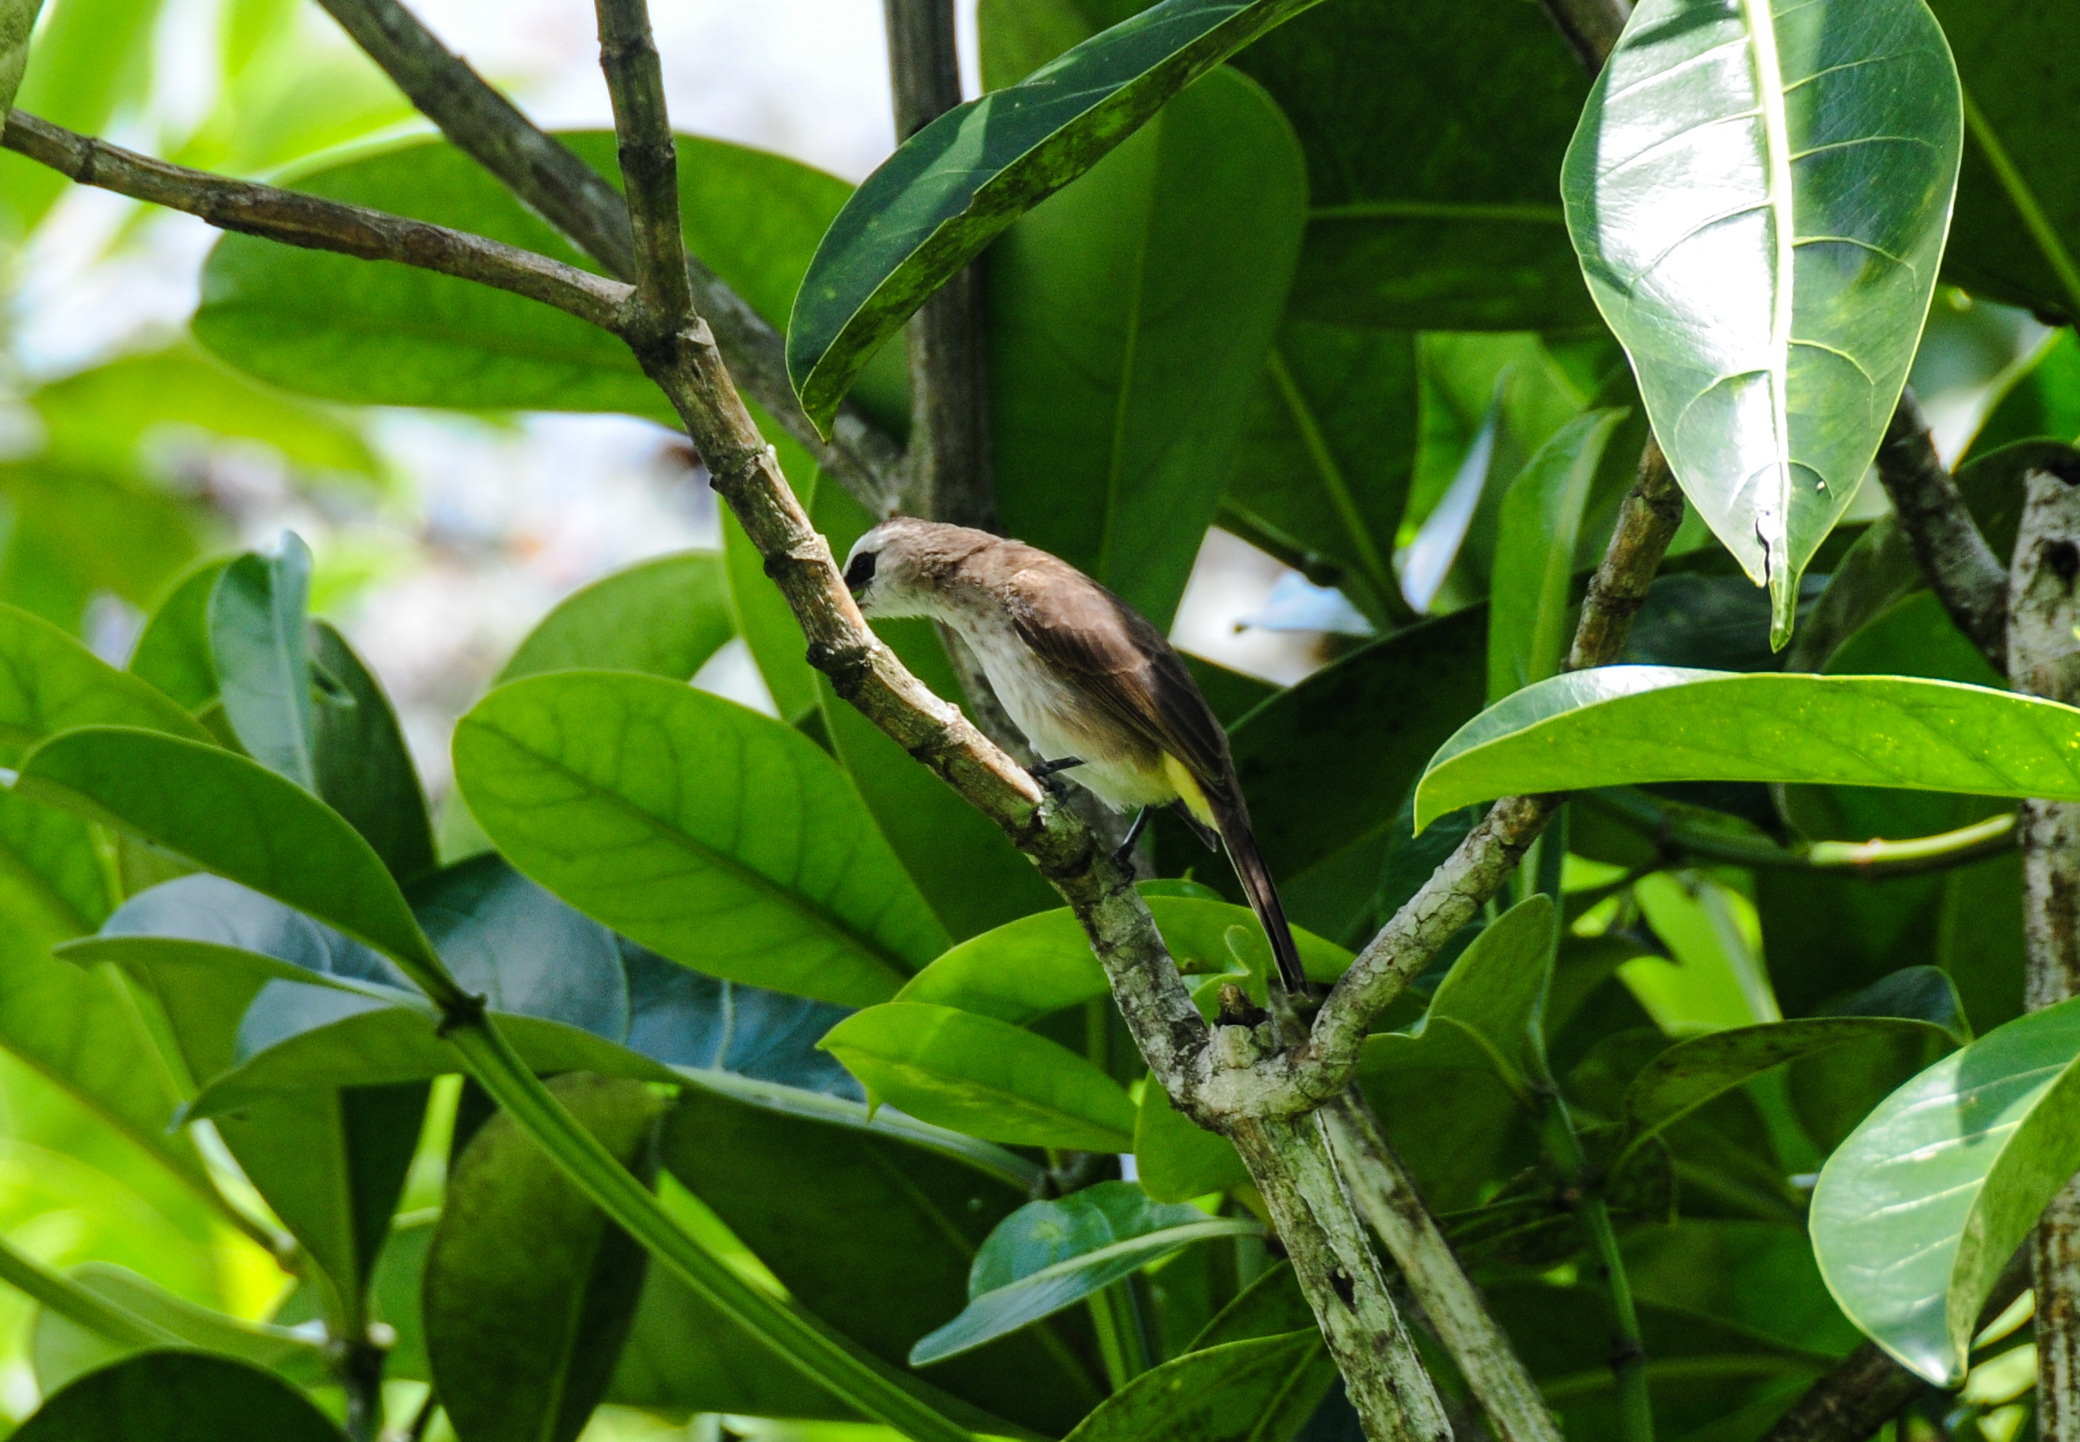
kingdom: Animalia
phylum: Chordata
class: Aves
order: Passeriformes
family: Pycnonotidae
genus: Pycnonotus
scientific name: Pycnonotus goiavier
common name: Yellow-vented bulbul
